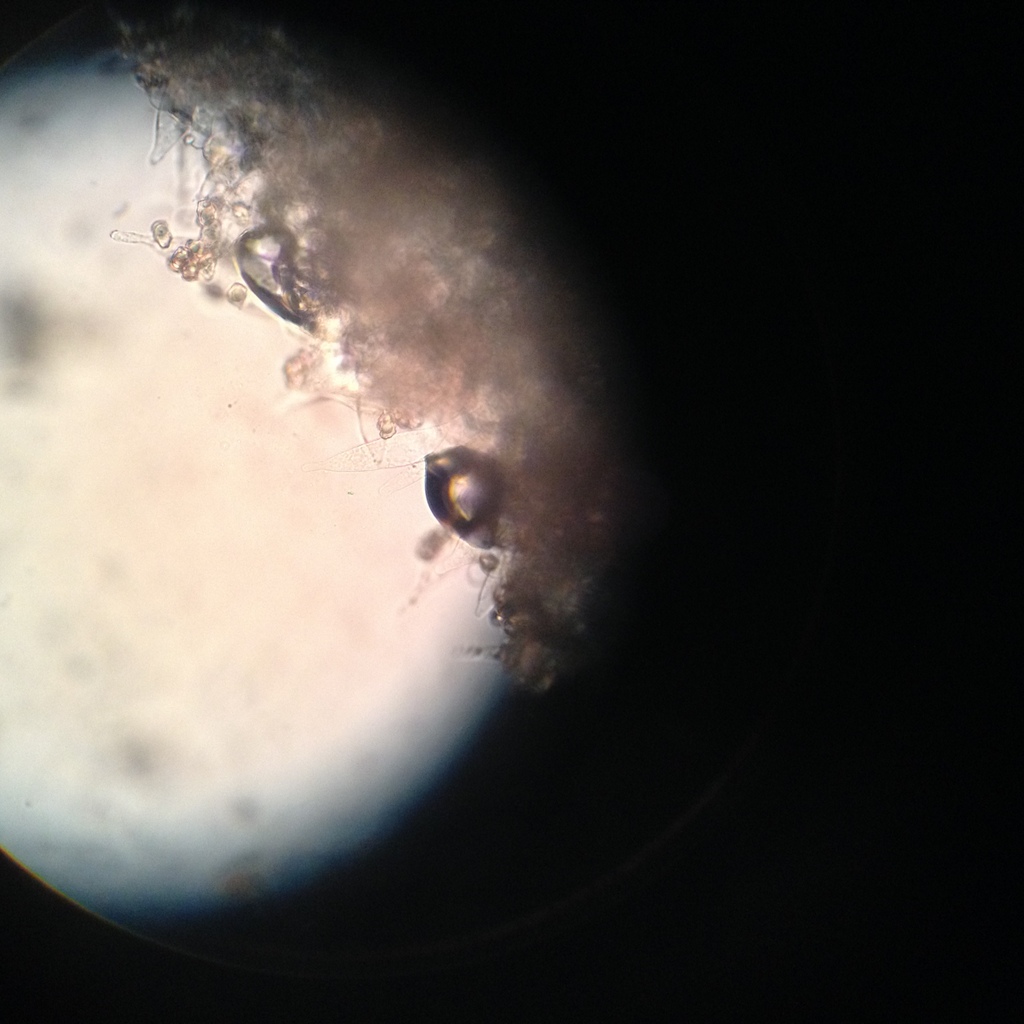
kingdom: Fungi
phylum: Basidiomycota
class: Agaricomycetes
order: Agaricales
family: Entolomataceae
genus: Entoloma
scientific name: Entoloma cocles
